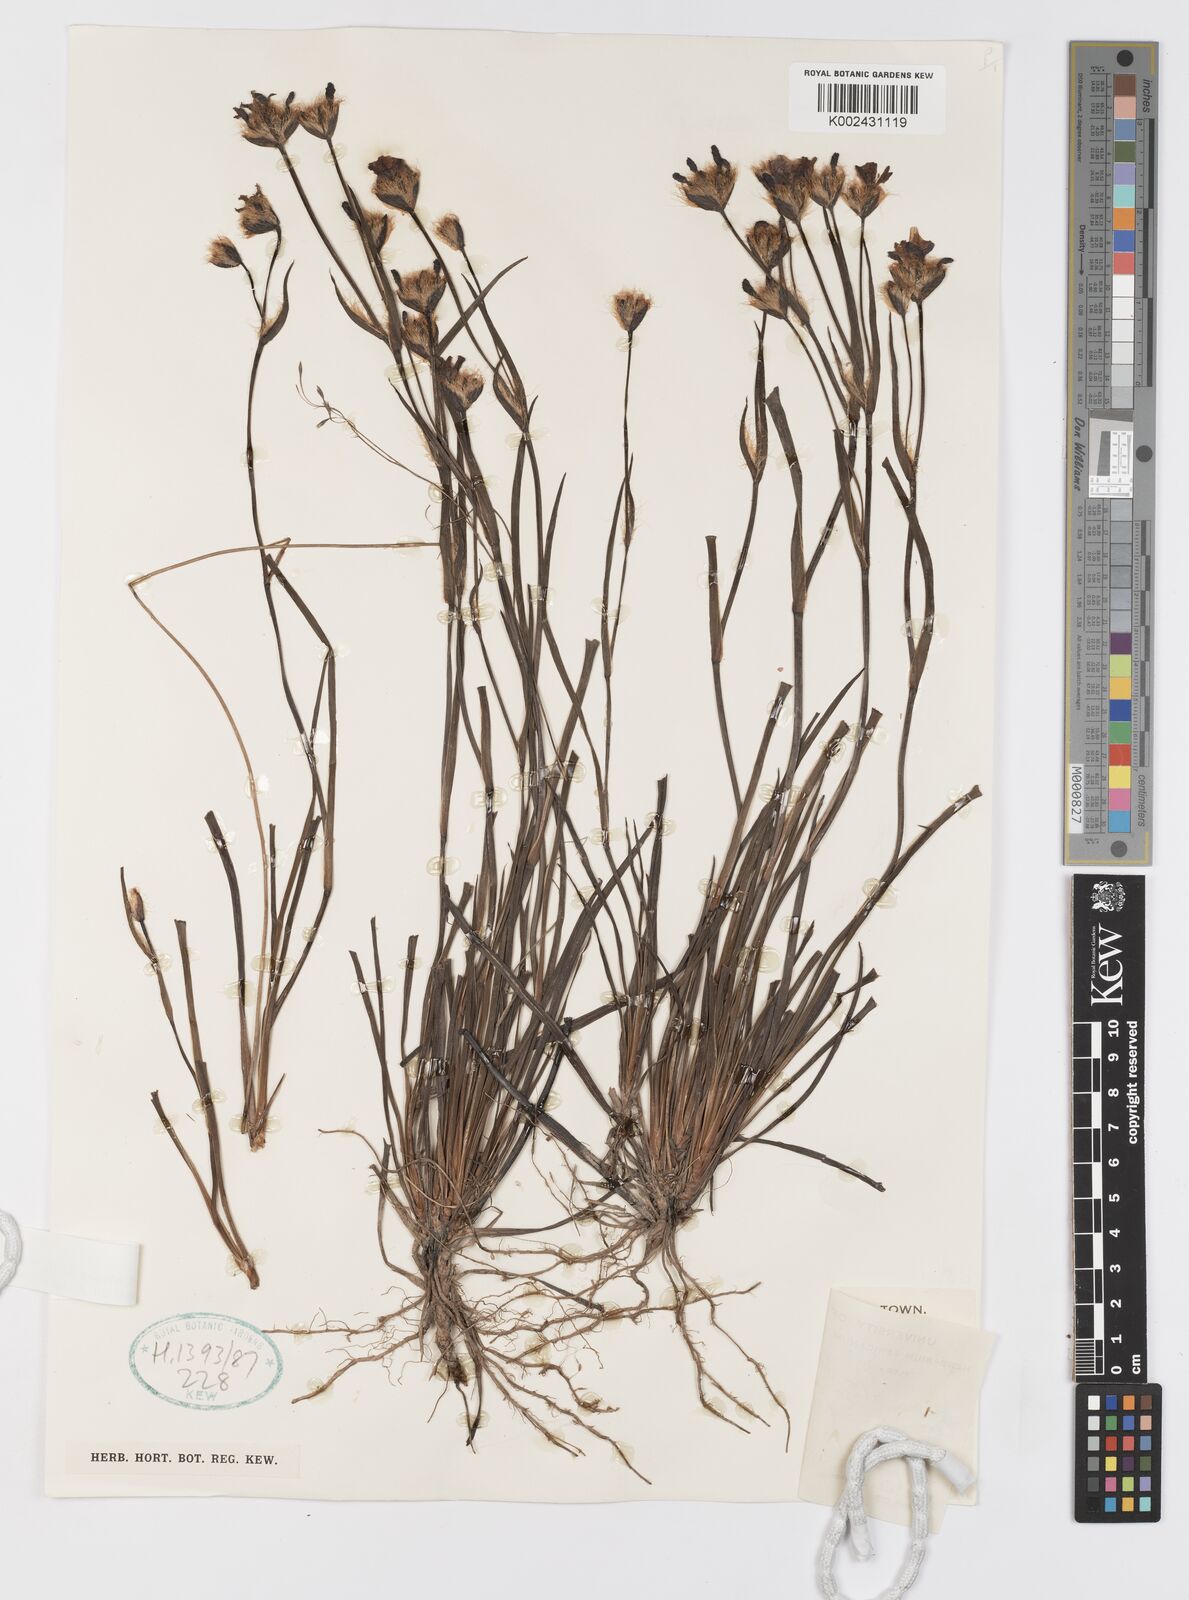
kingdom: Plantae
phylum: Tracheophyta
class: Liliopsida
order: Asparagales
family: Iridaceae
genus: Aristea
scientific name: Aristea africana
